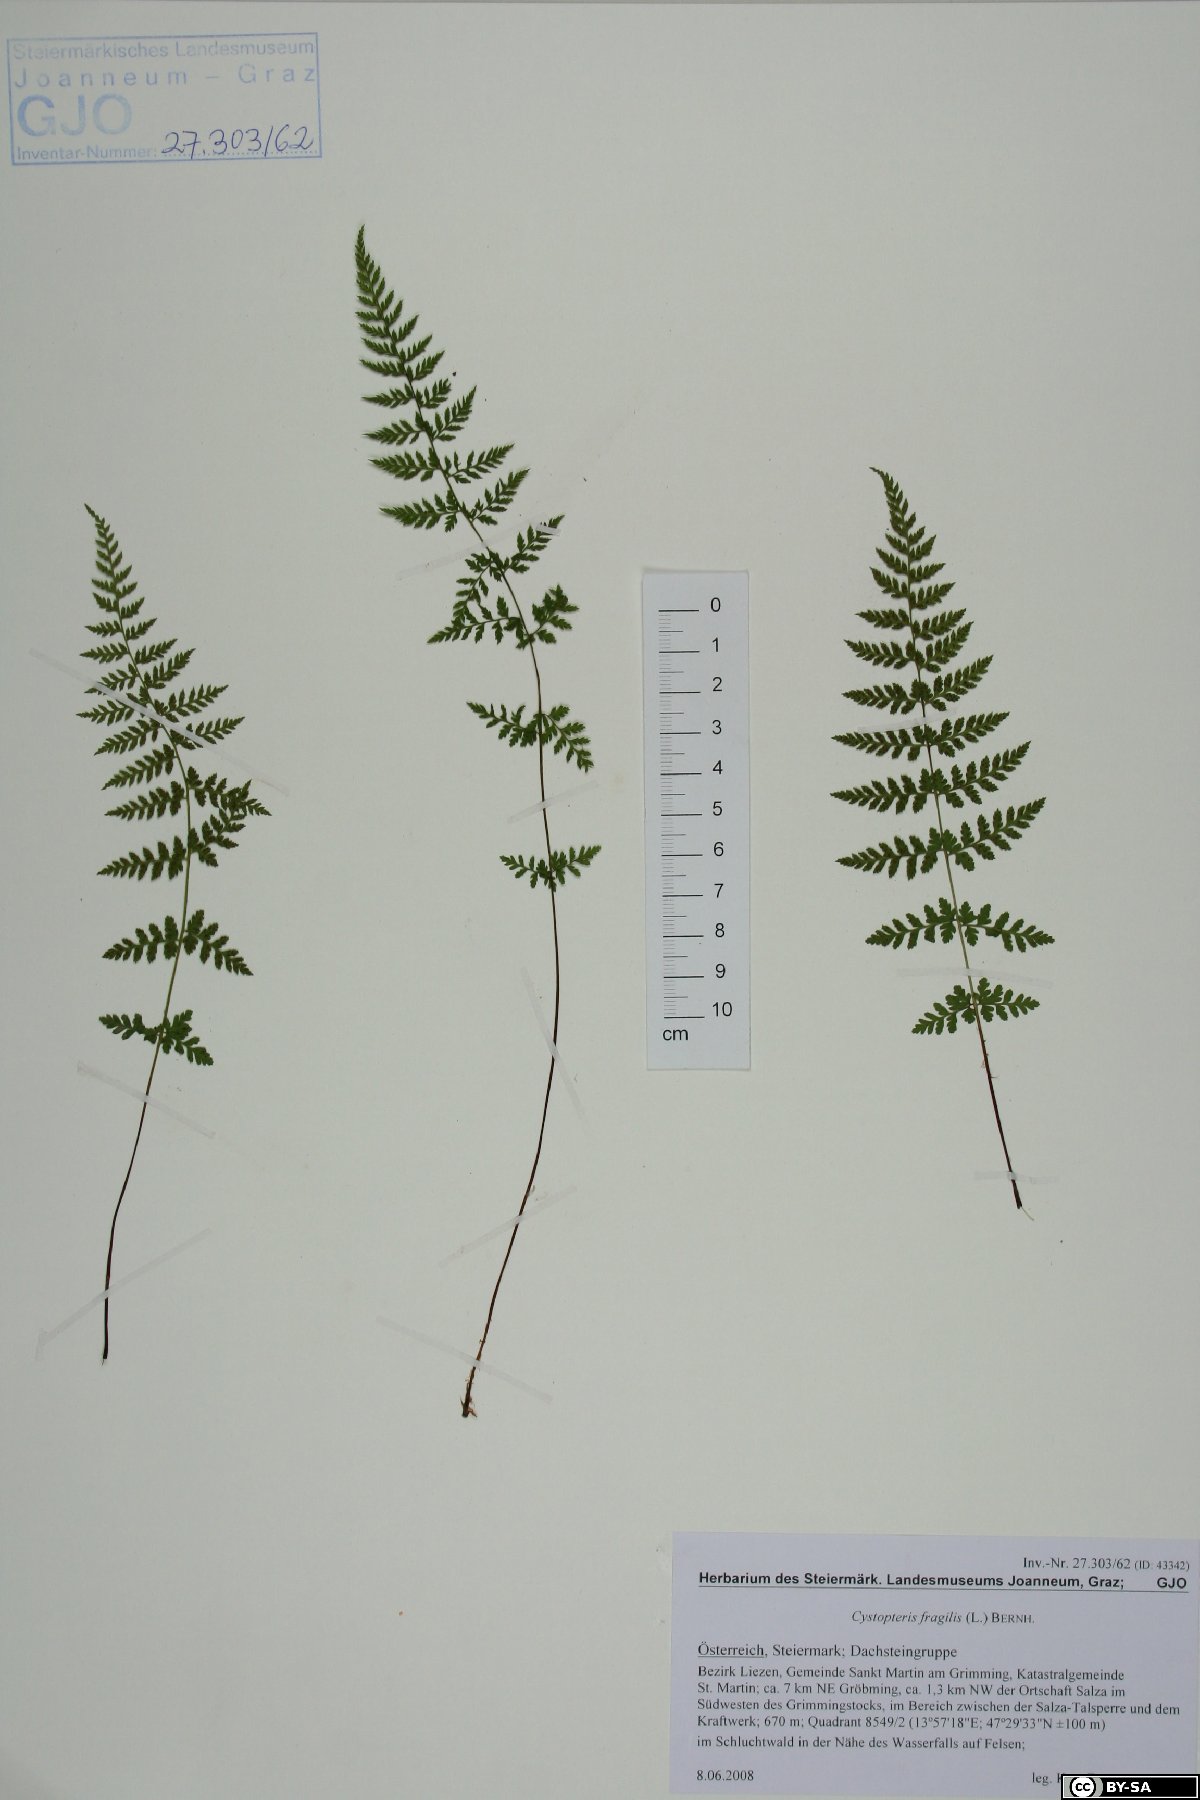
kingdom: Plantae
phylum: Tracheophyta
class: Polypodiopsida
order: Polypodiales
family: Cystopteridaceae
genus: Cystopteris
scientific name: Cystopteris fragilis
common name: Brittle bladder fern
